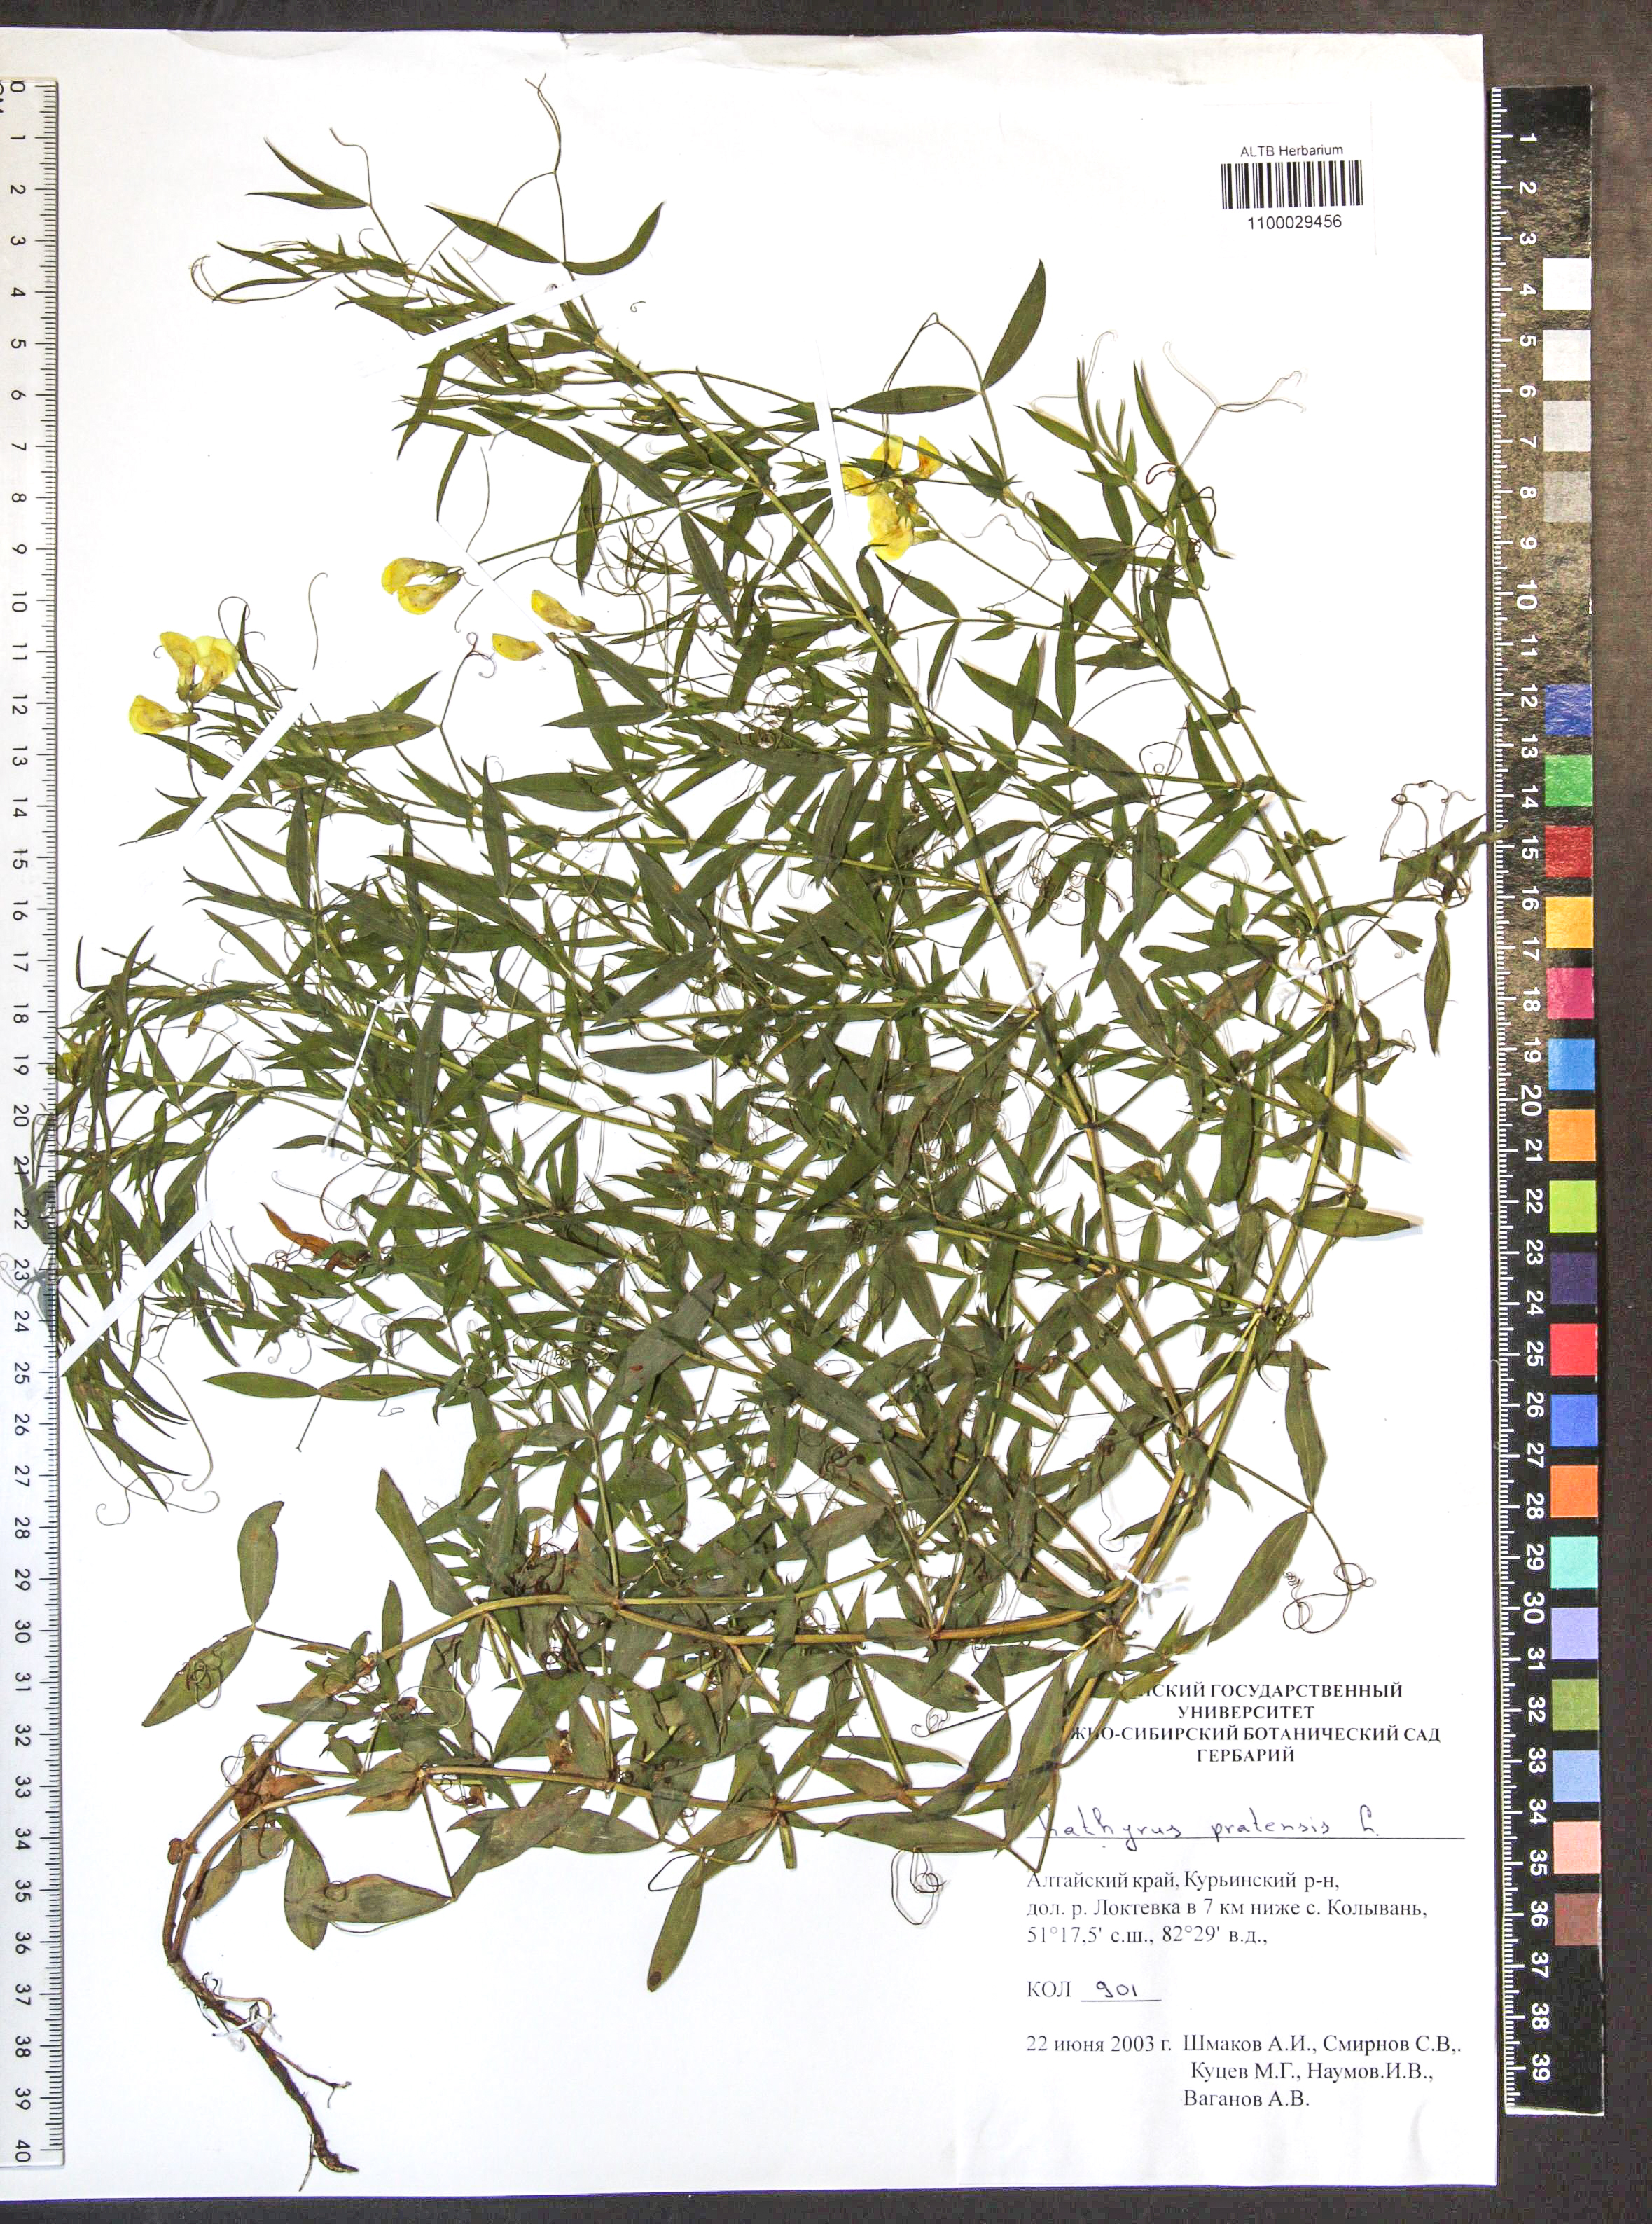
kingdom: Plantae
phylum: Tracheophyta
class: Magnoliopsida
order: Fabales
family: Fabaceae
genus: Lathyrus
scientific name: Lathyrus pratensis
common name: Meadow vetchling
